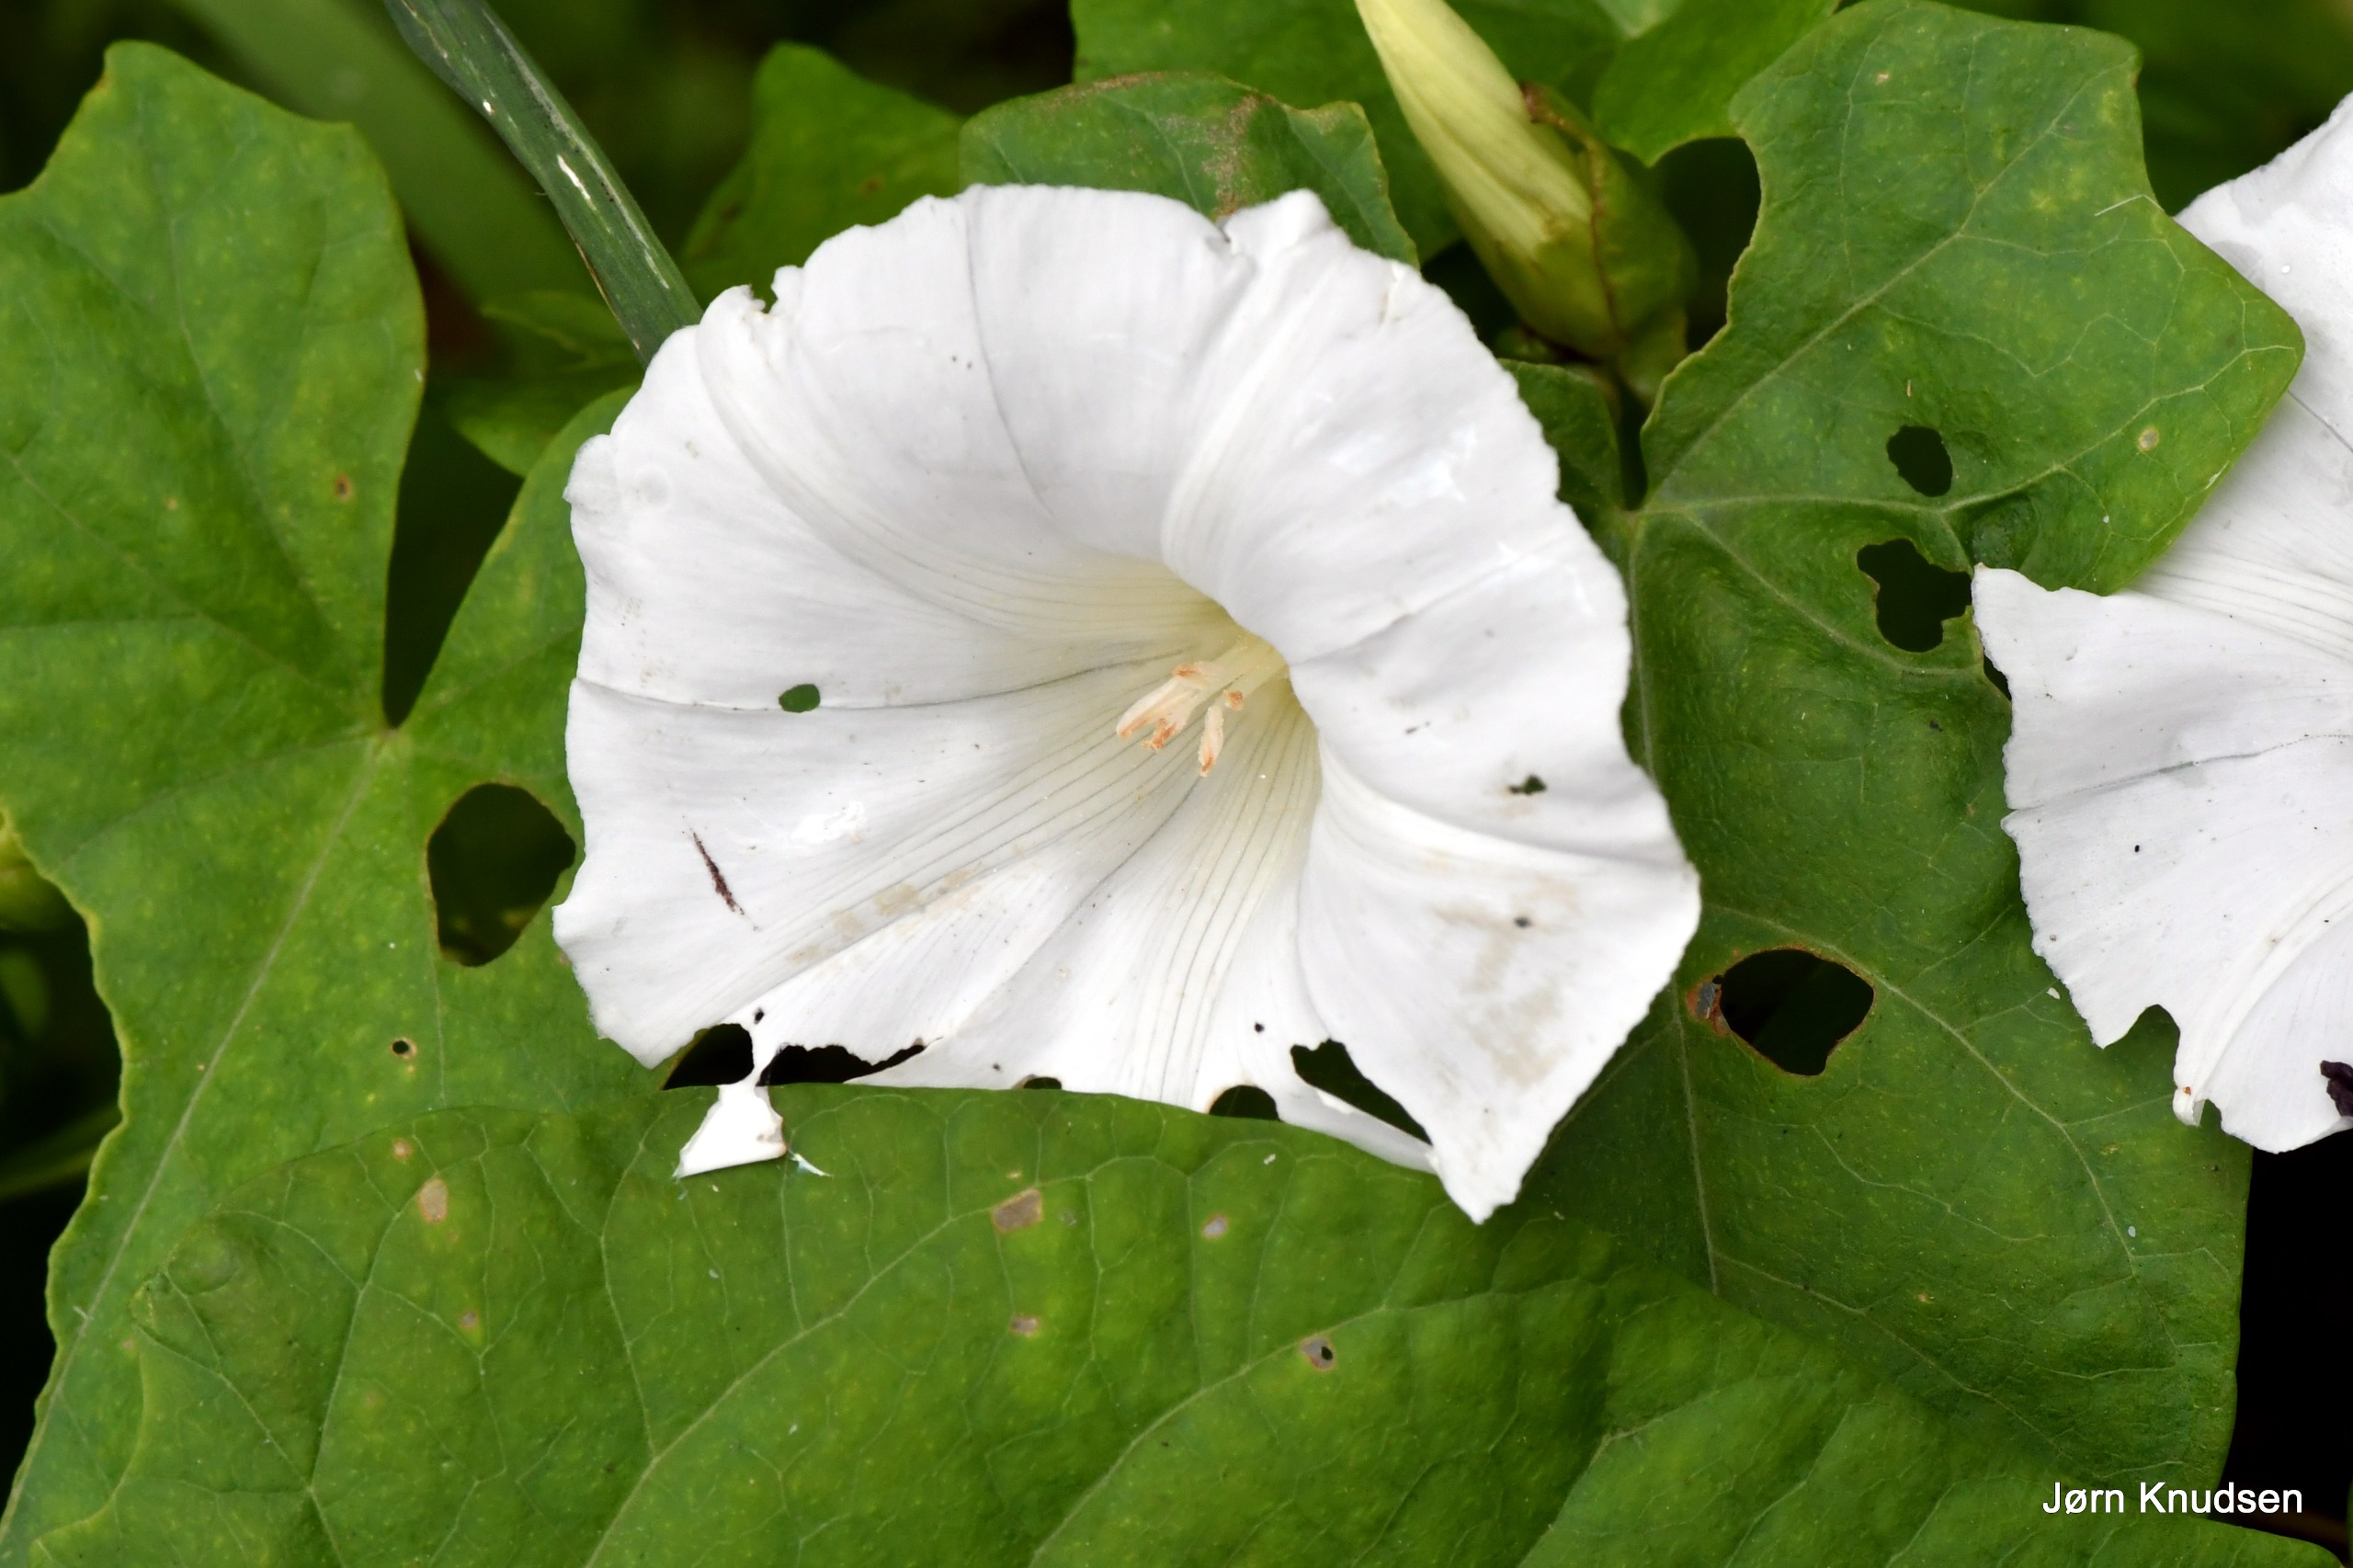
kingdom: Plantae
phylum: Tracheophyta
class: Magnoliopsida
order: Solanales
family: Convolvulaceae
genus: Calystegia
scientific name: Calystegia sepium
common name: Gærde-snerle
